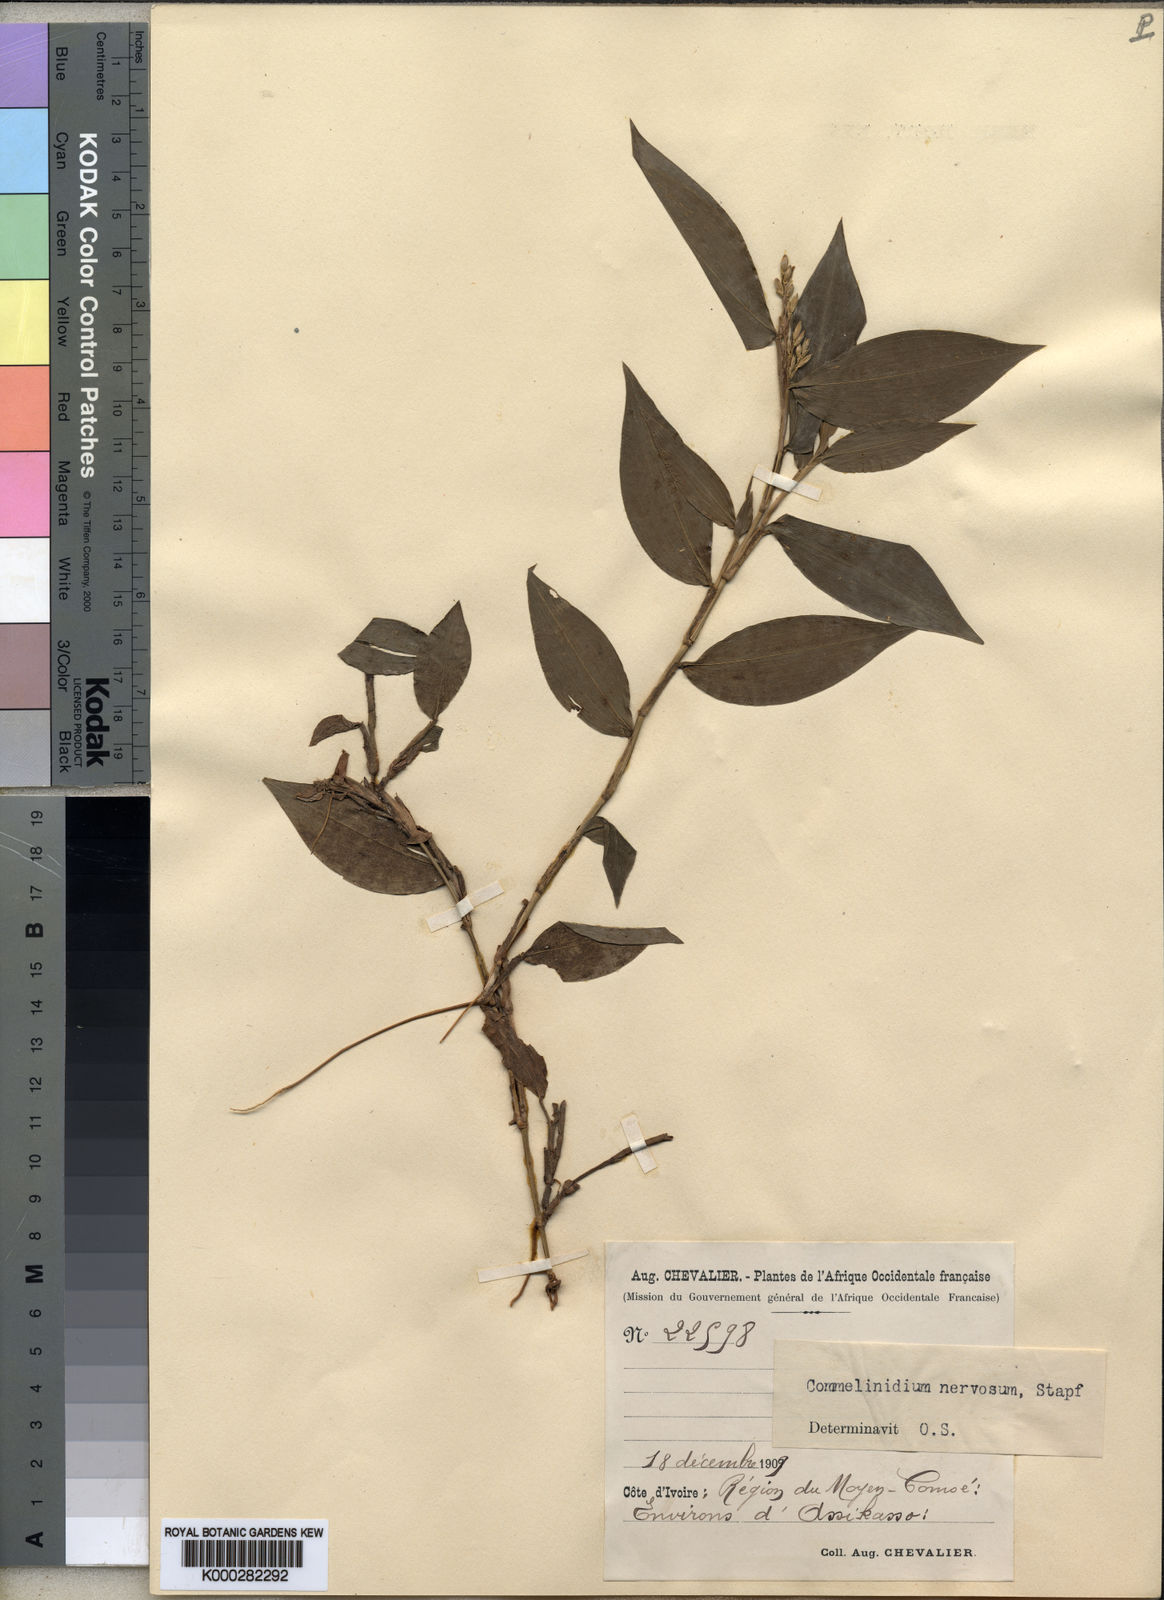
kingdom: Plantae
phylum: Tracheophyta
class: Liliopsida
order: Poales
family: Poaceae
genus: Acroceras
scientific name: Acroceras gabunense
